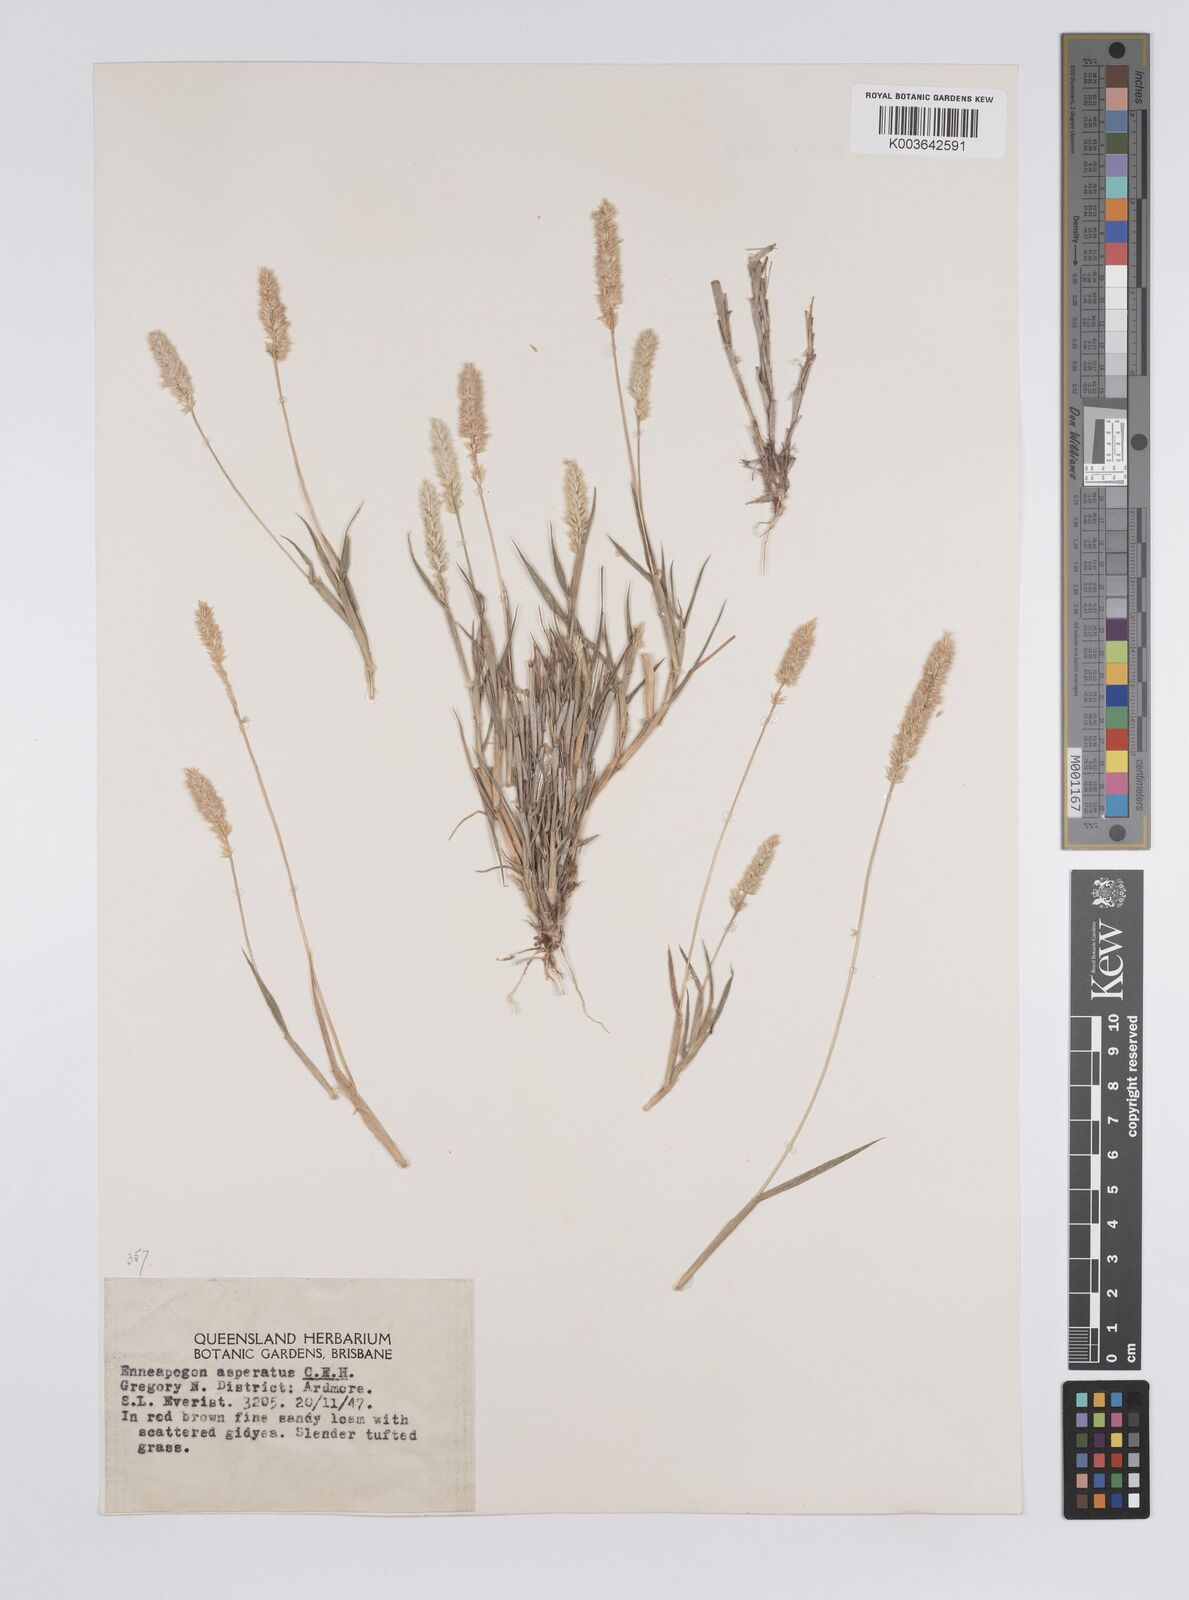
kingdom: Plantae
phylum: Tracheophyta
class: Liliopsida
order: Poales
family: Poaceae
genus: Enneapogon
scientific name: Enneapogon asperatus
